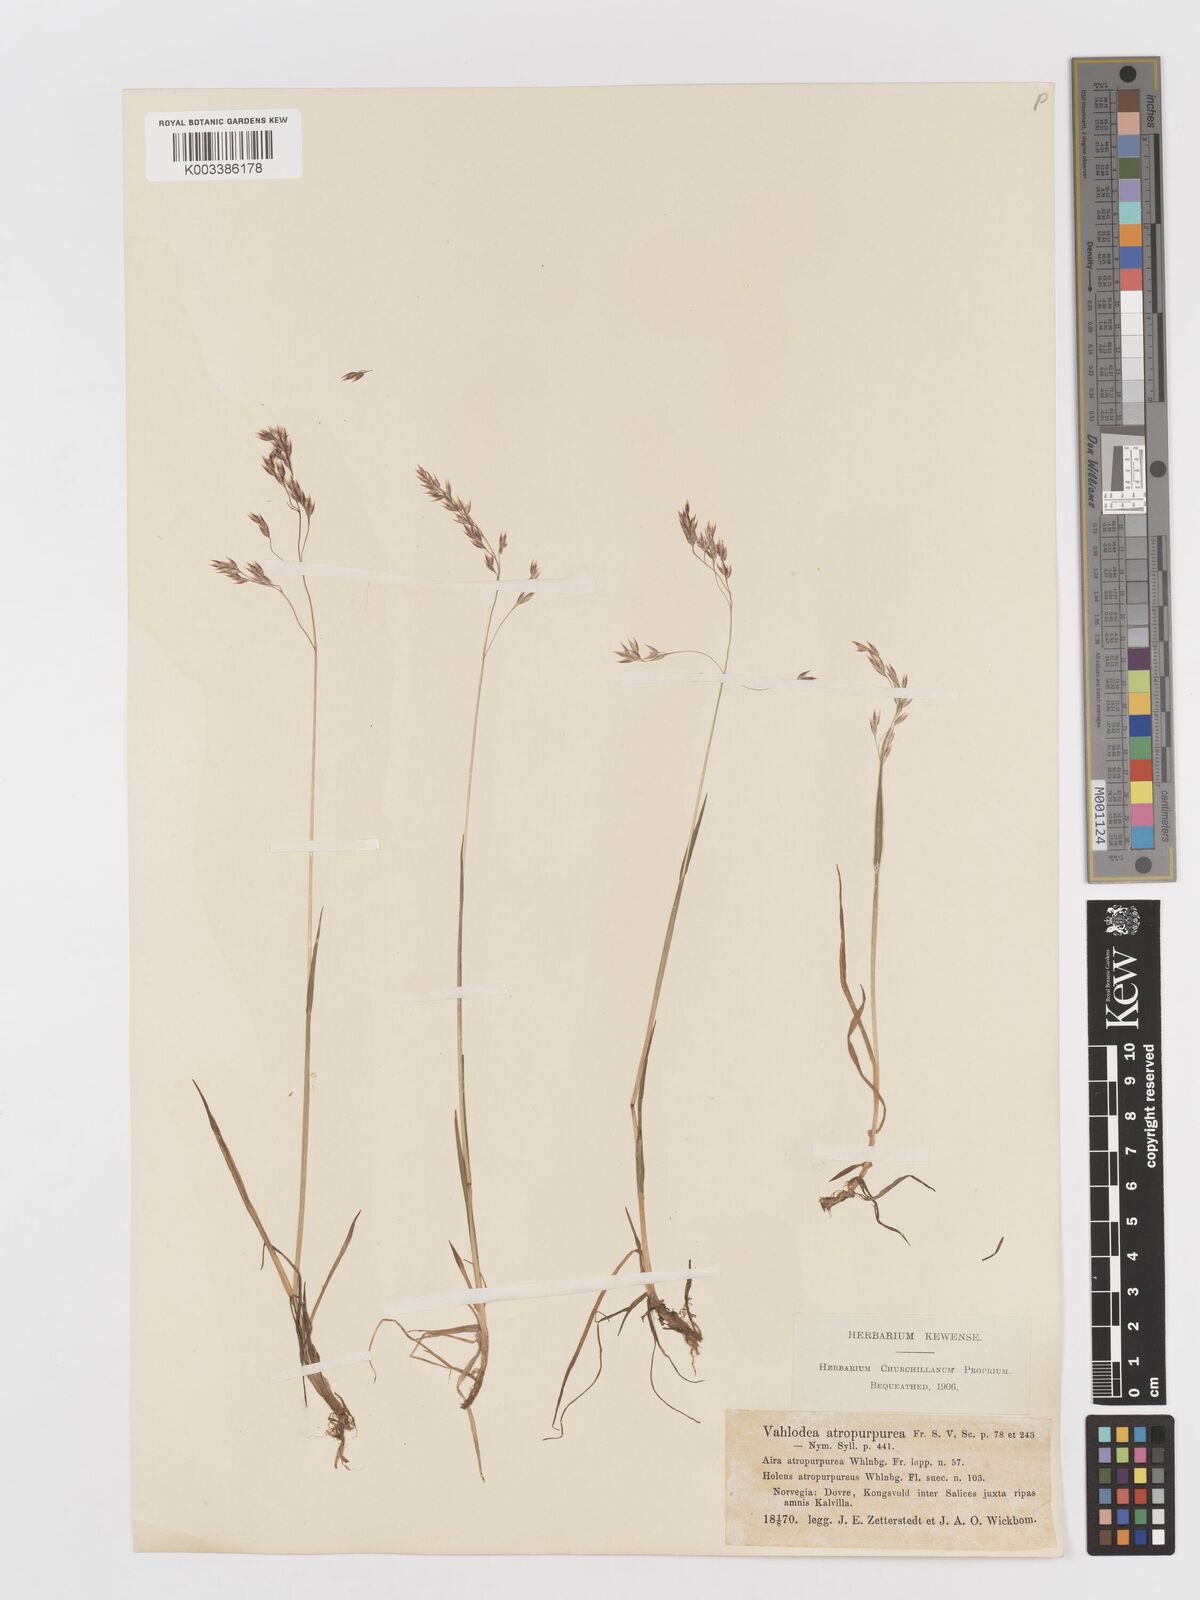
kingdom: Plantae
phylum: Tracheophyta
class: Liliopsida
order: Poales
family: Poaceae
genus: Vahlodea
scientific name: Vahlodea atropurpurea
